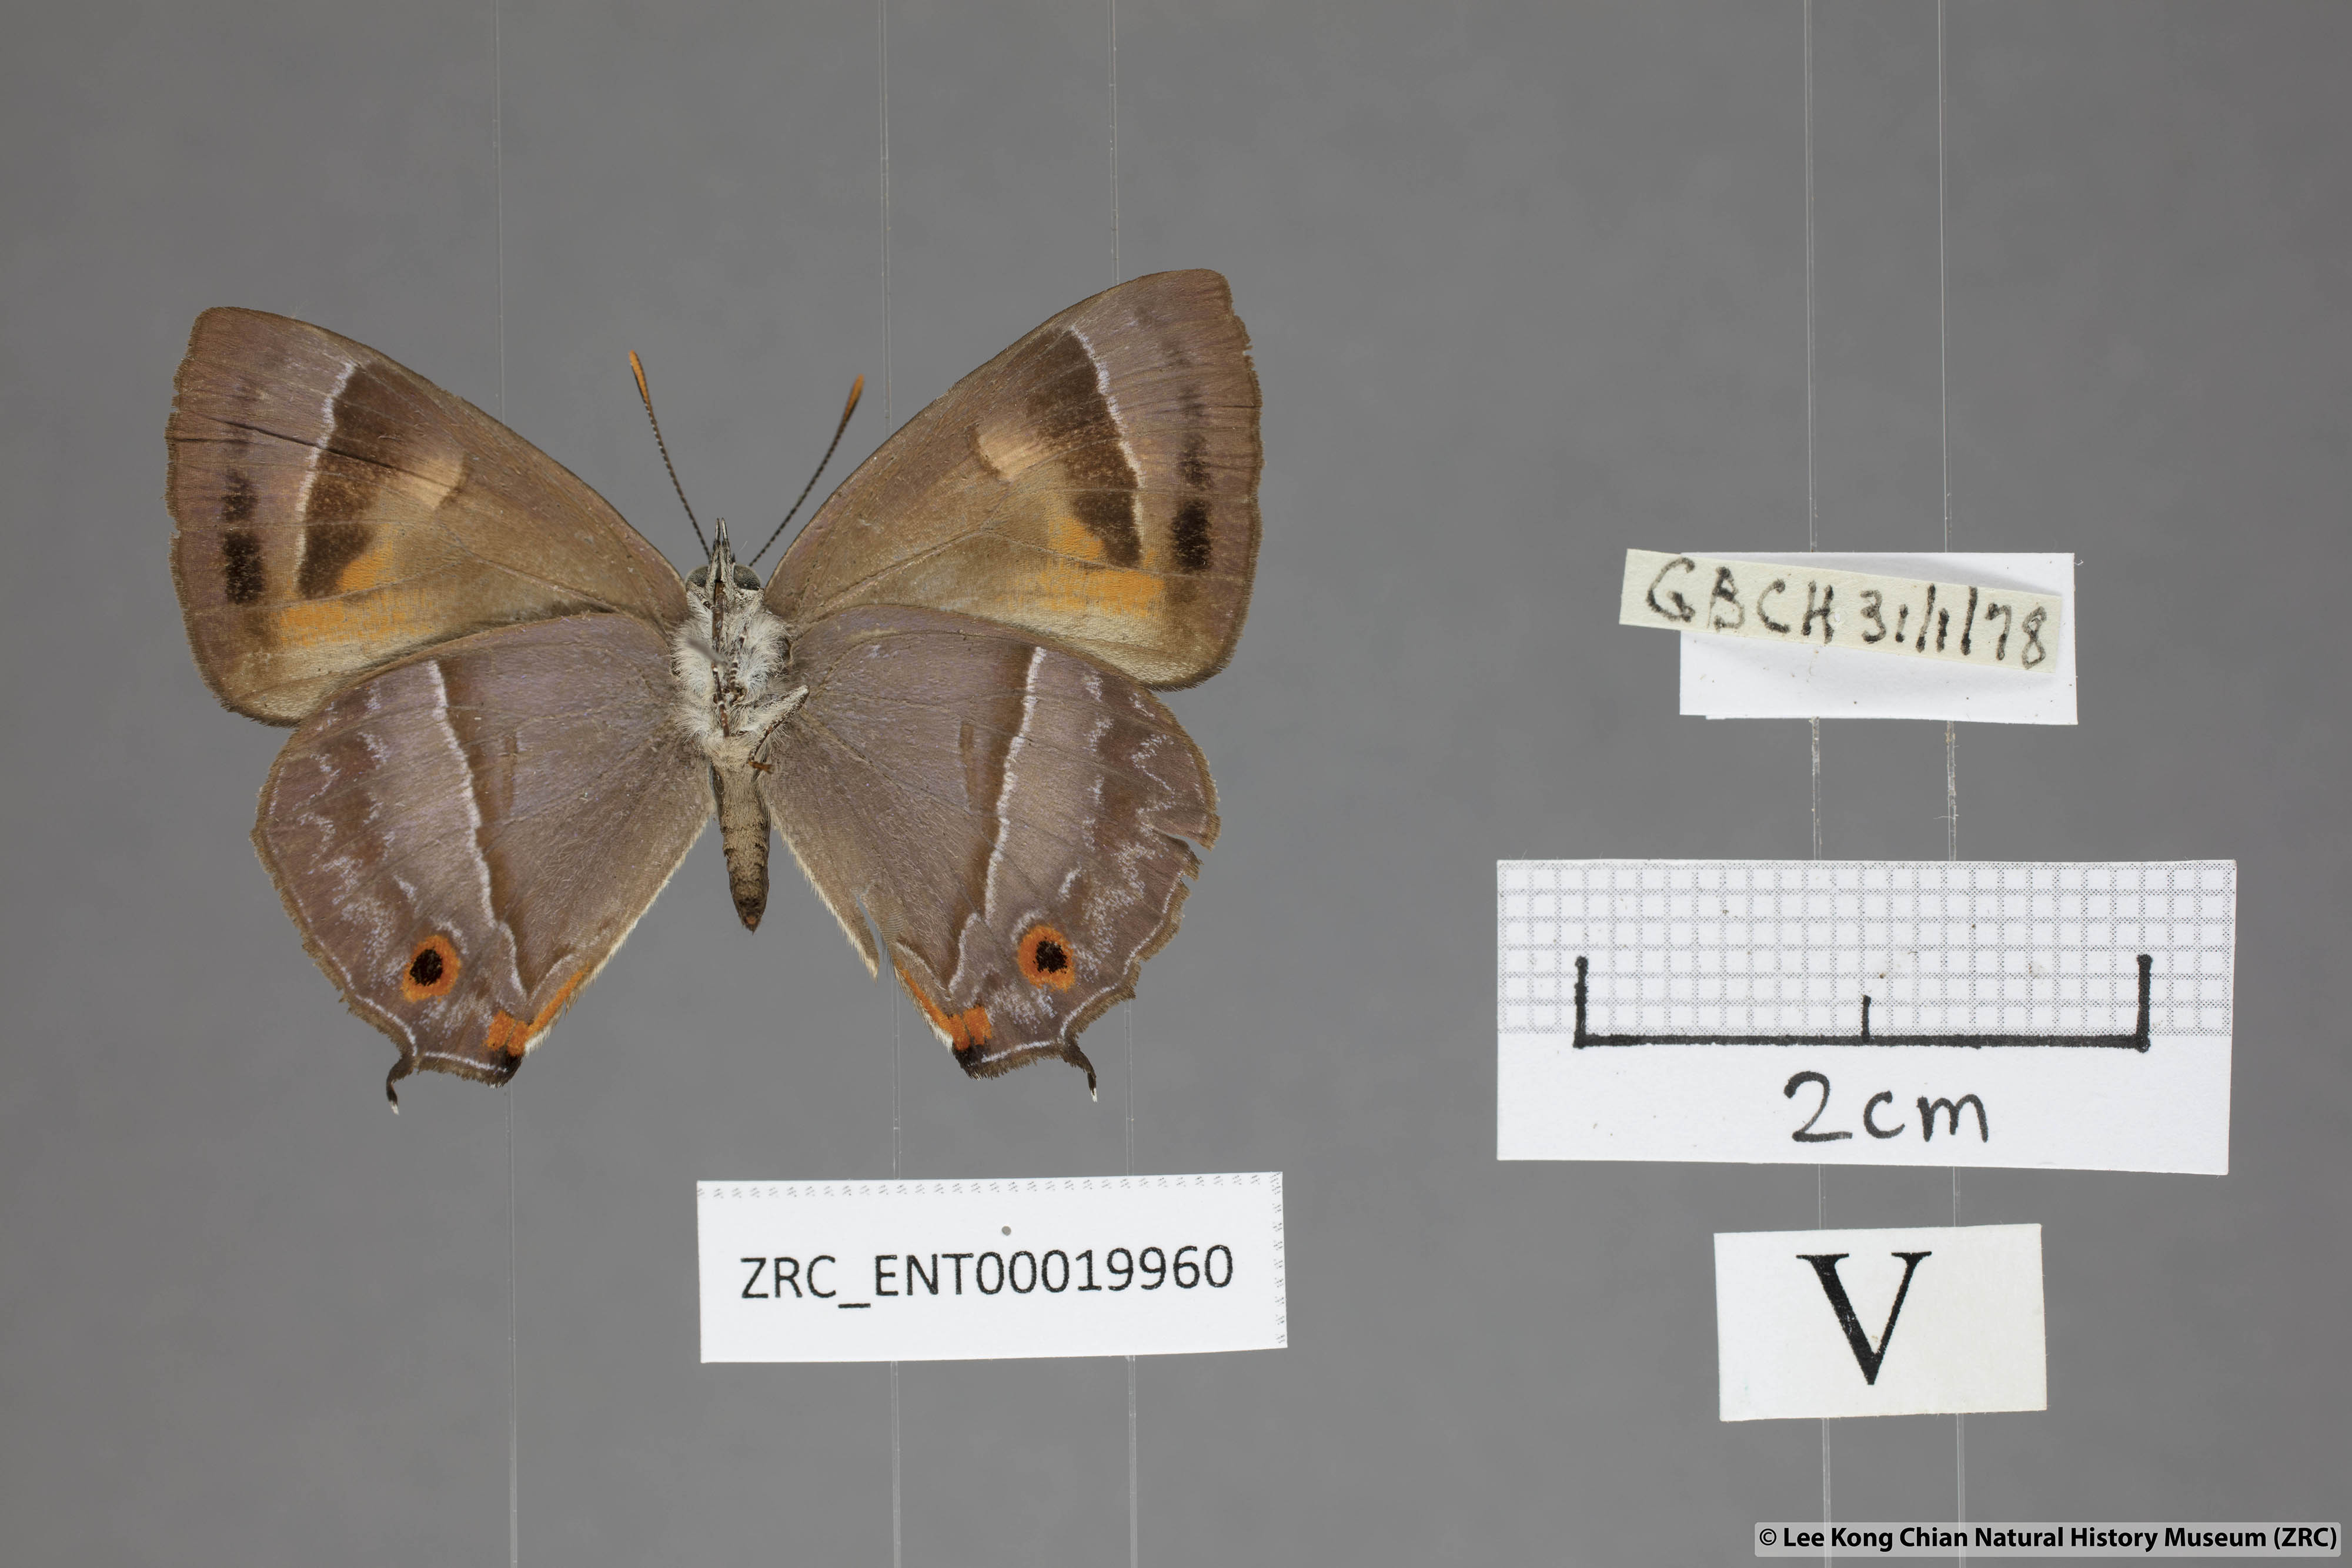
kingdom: Animalia
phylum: Arthropoda
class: Insecta
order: Lepidoptera
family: Lycaenidae
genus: Austrozephyrus
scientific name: Austrozephyrus absolon
